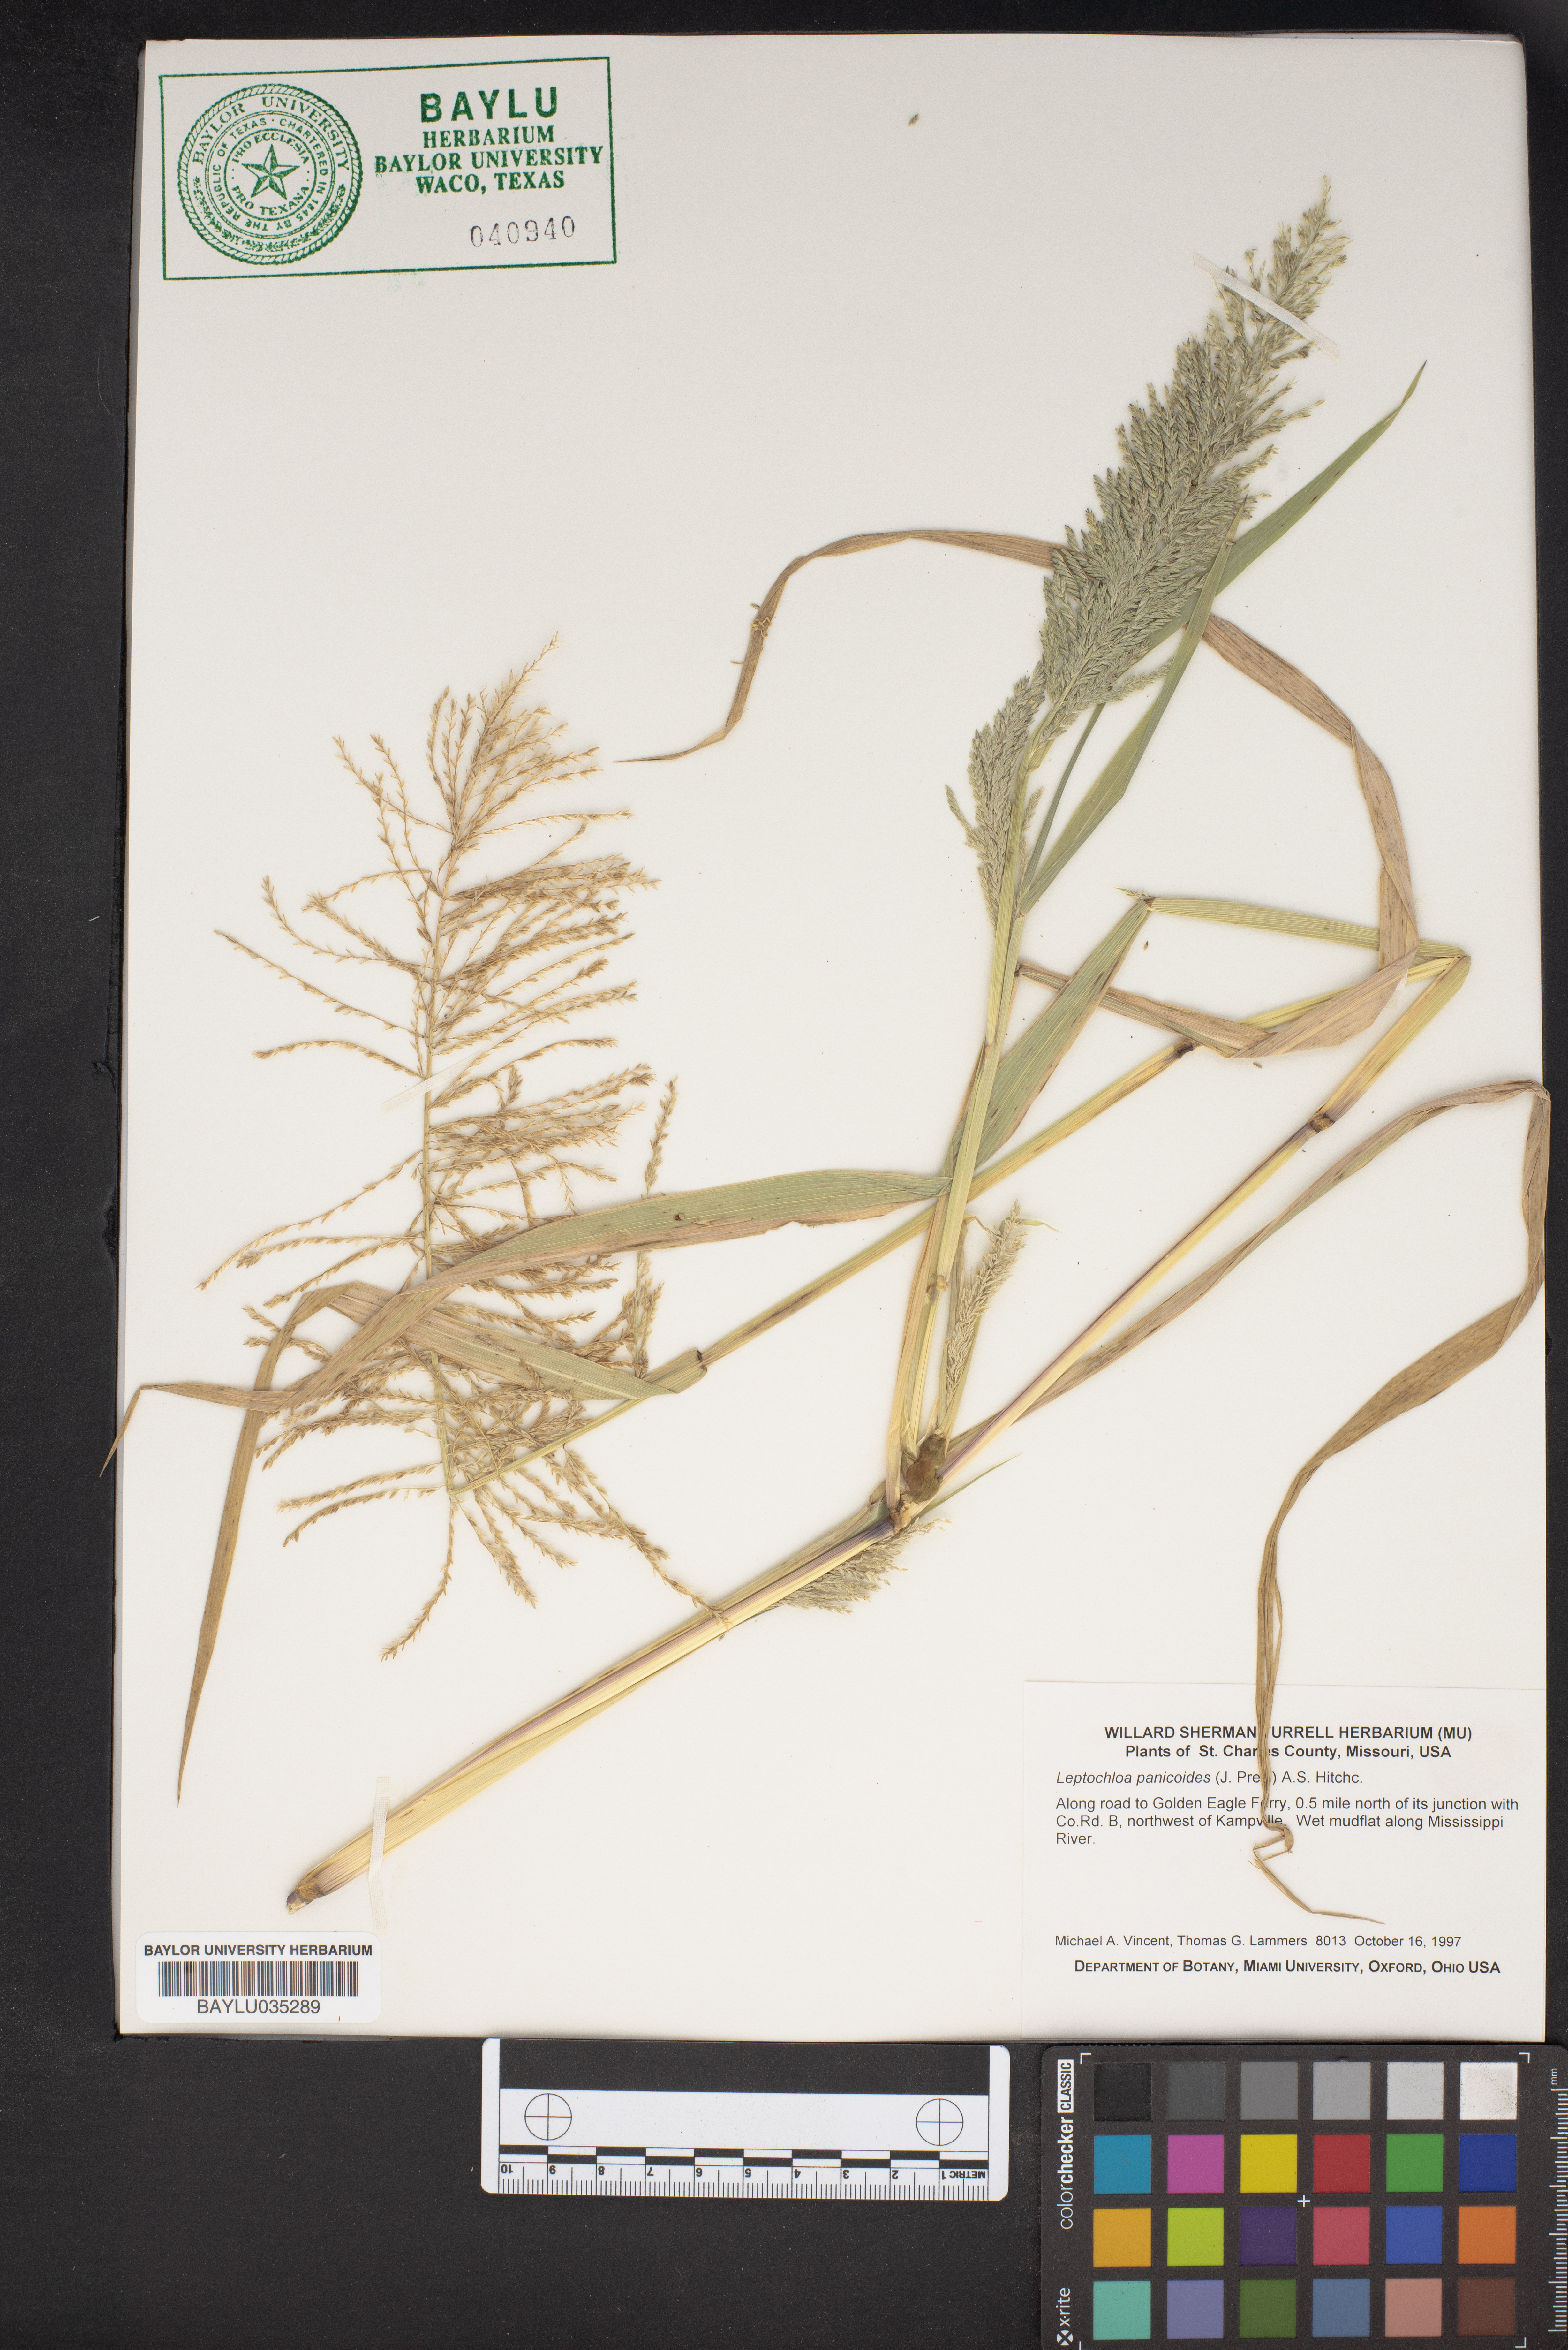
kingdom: Plantae
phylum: Tracheophyta
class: Liliopsida
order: Poales
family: Poaceae
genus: Arundinella
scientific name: Arundinella leptochloa
